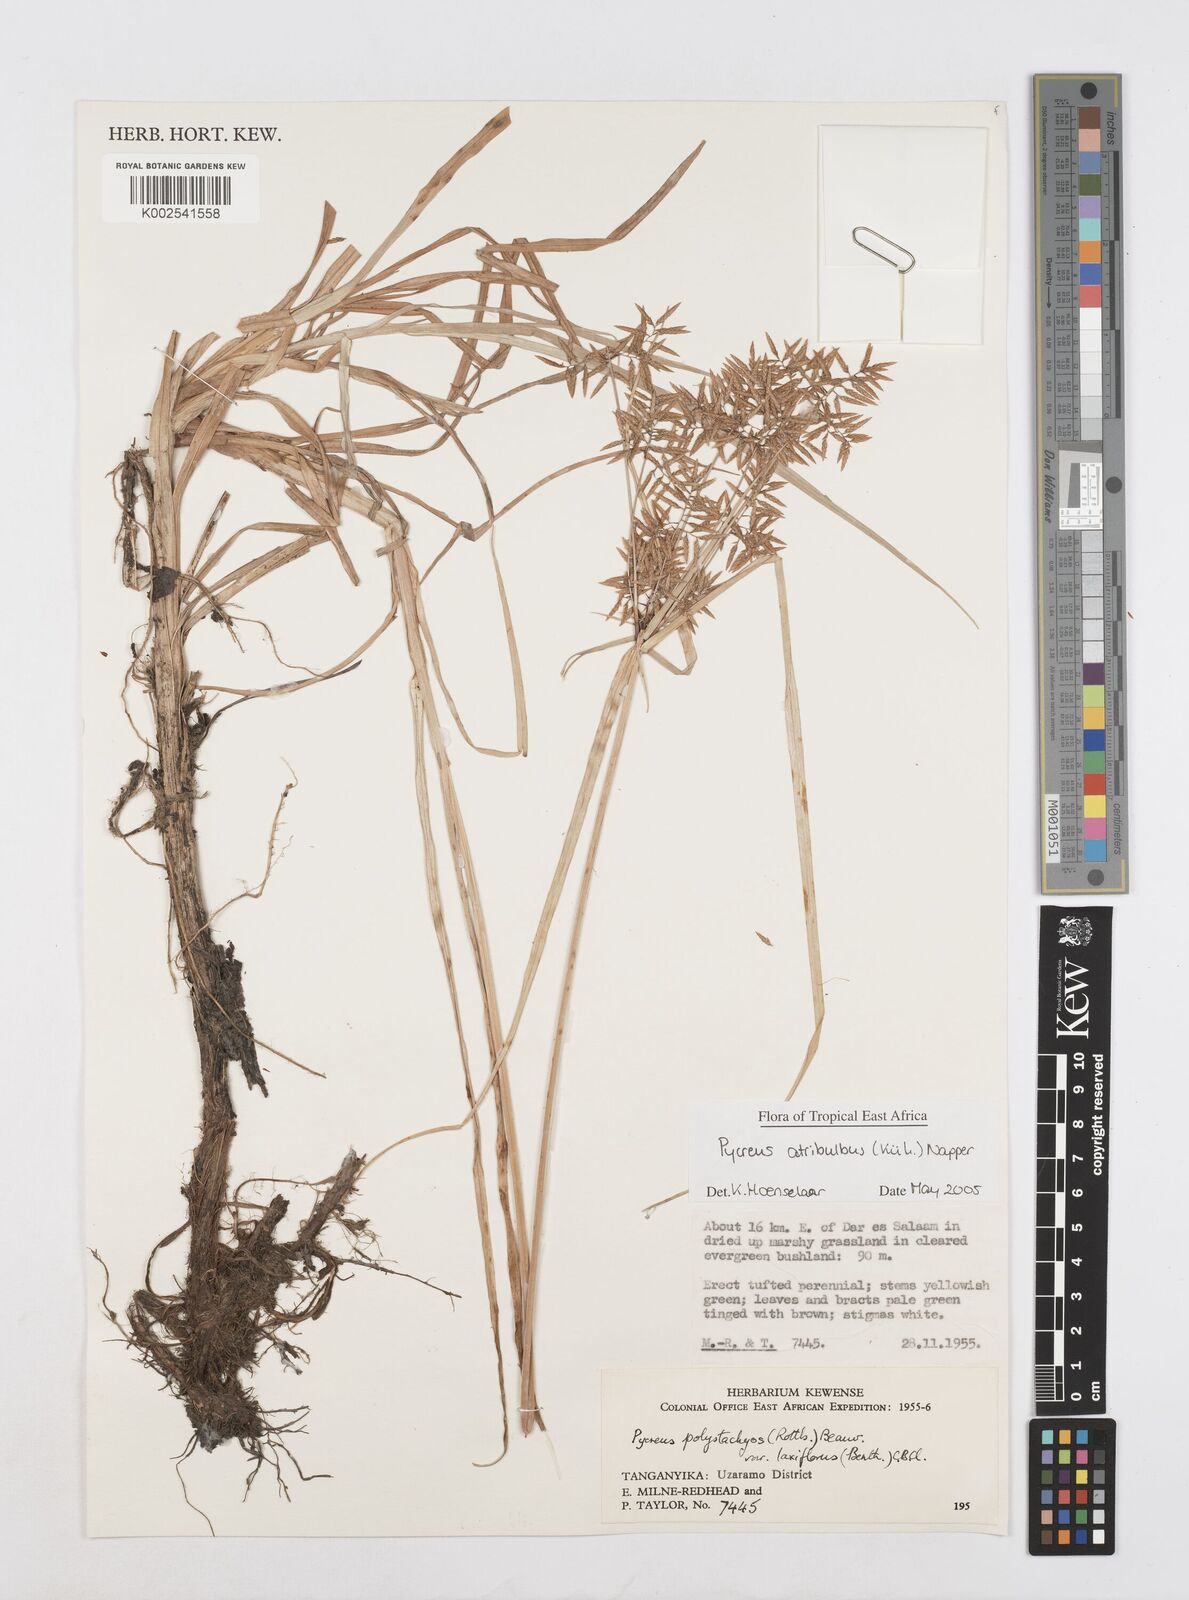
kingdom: Plantae
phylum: Tracheophyta
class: Liliopsida
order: Poales
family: Cyperaceae
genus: Cyperus
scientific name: Cyperus intactus
